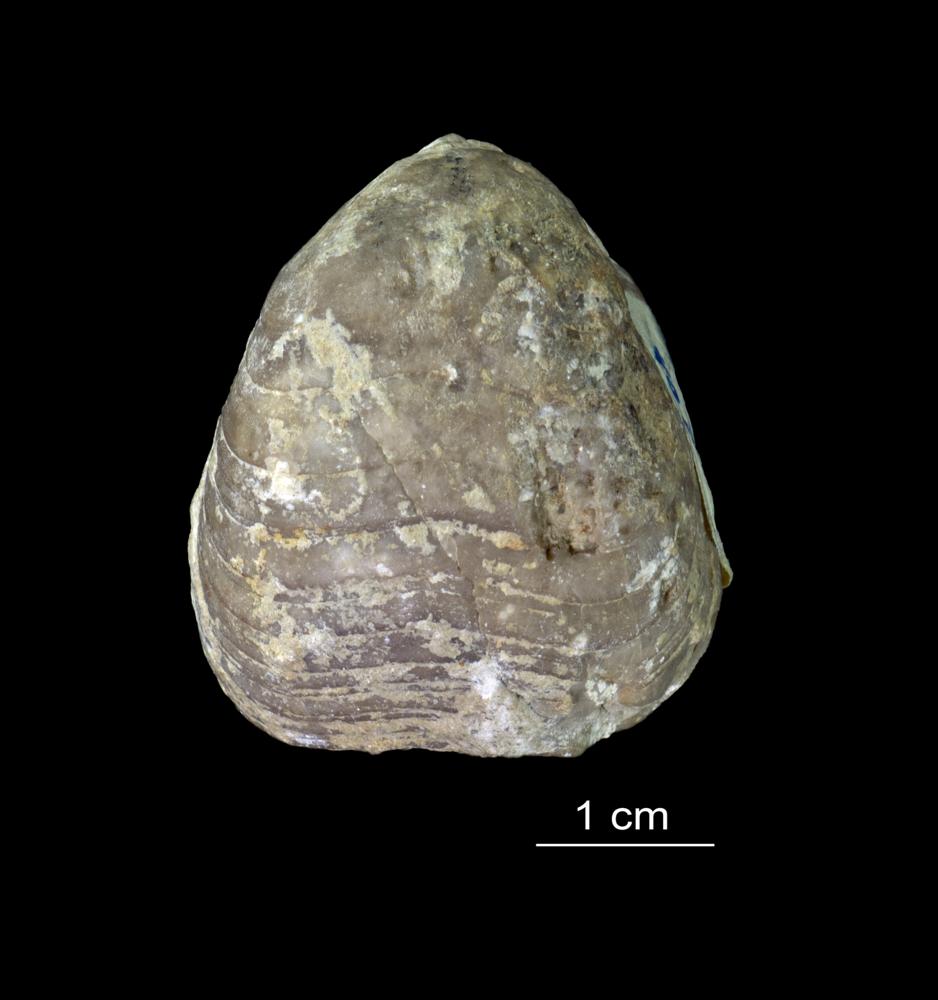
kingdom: Animalia
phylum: Brachiopoda
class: Rhynchonellata
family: Porambonitidae
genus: Porambonites
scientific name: Porambonites baueri
